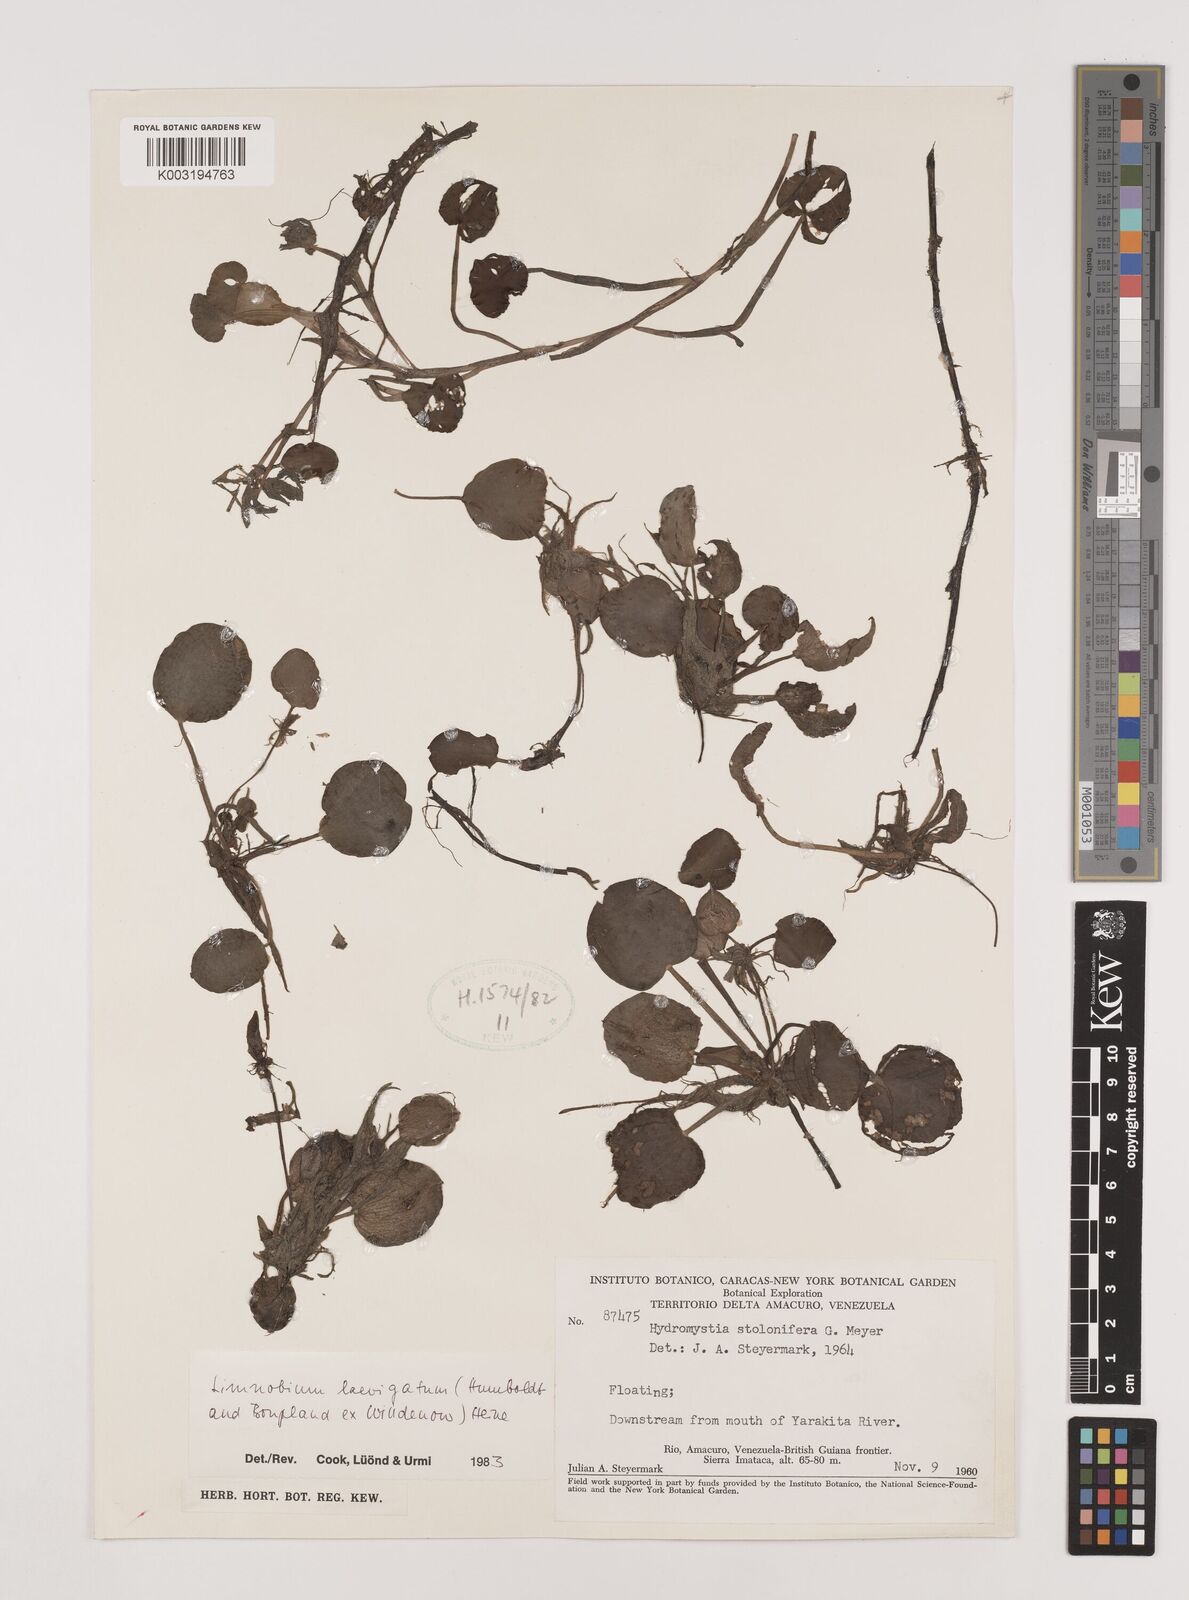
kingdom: Plantae
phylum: Tracheophyta
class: Liliopsida
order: Alismatales
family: Hydrocharitaceae
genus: Hydrocharis
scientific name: Hydrocharis laevigata
